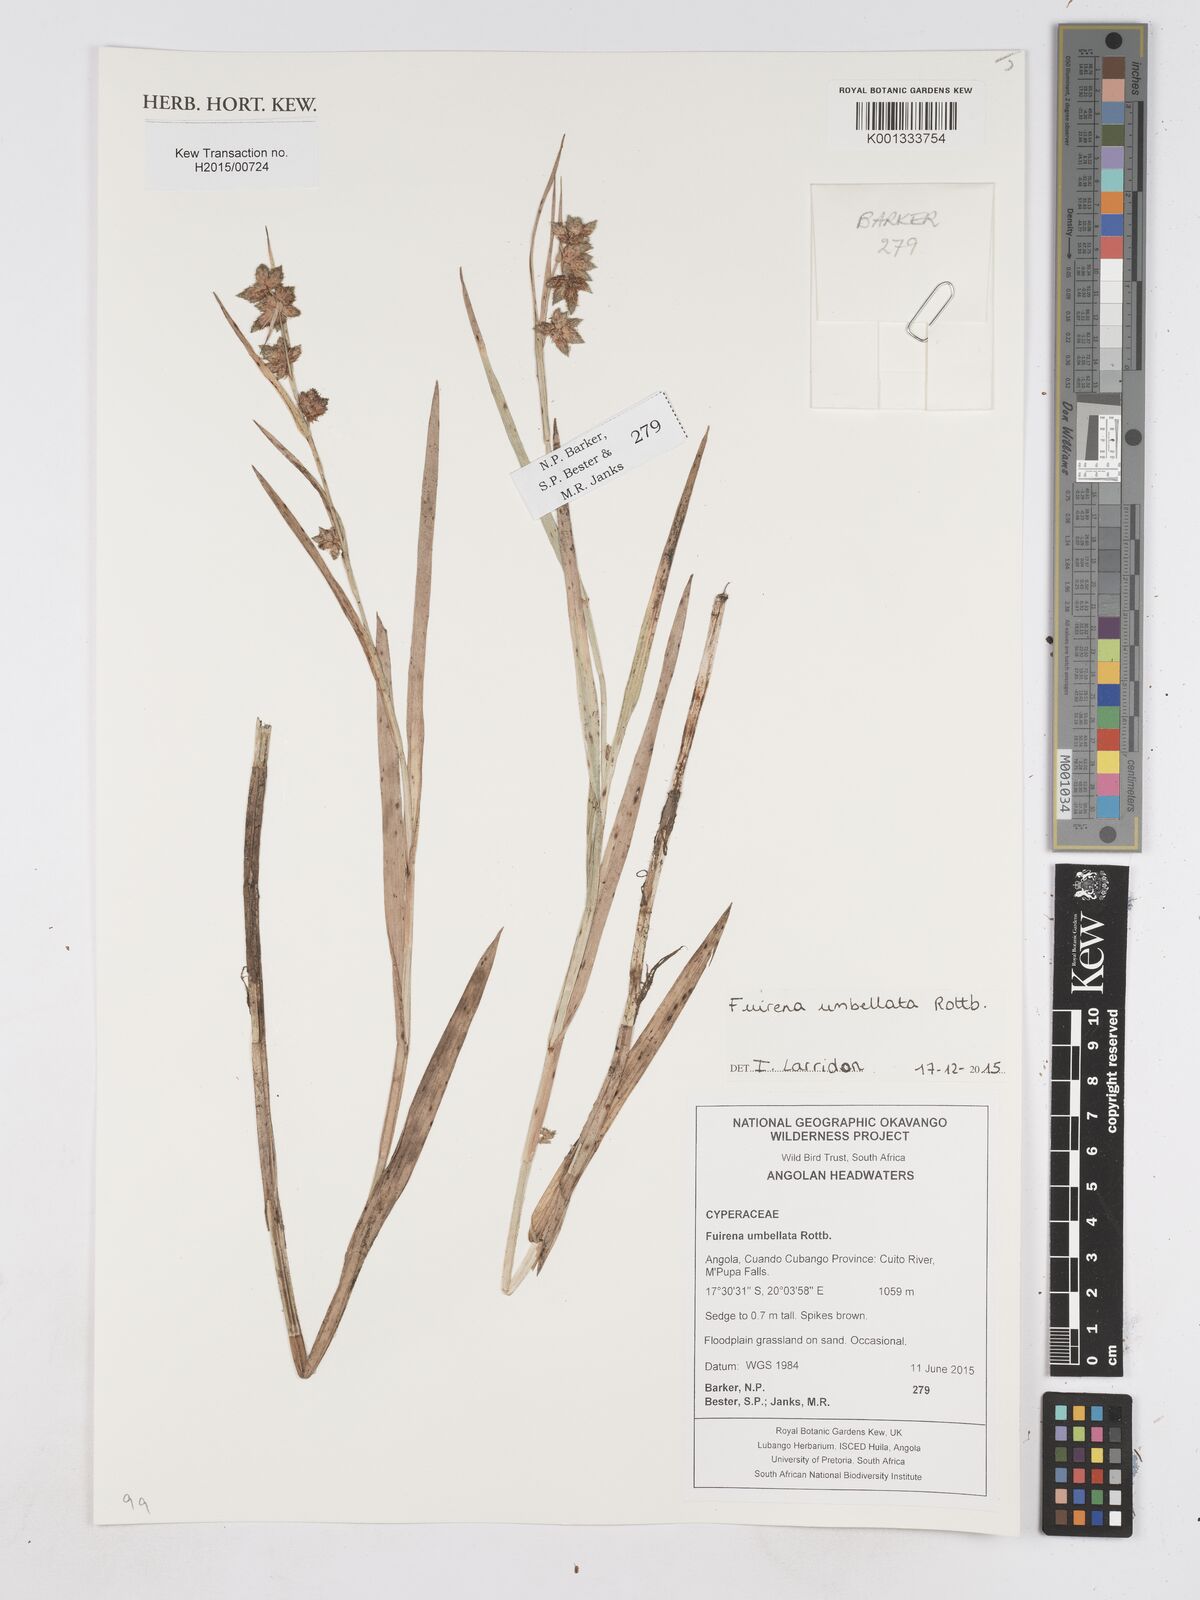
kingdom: Plantae
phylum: Tracheophyta
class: Liliopsida
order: Poales
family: Cyperaceae
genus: Fuirena
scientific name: Fuirena umbellata
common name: Yefen
